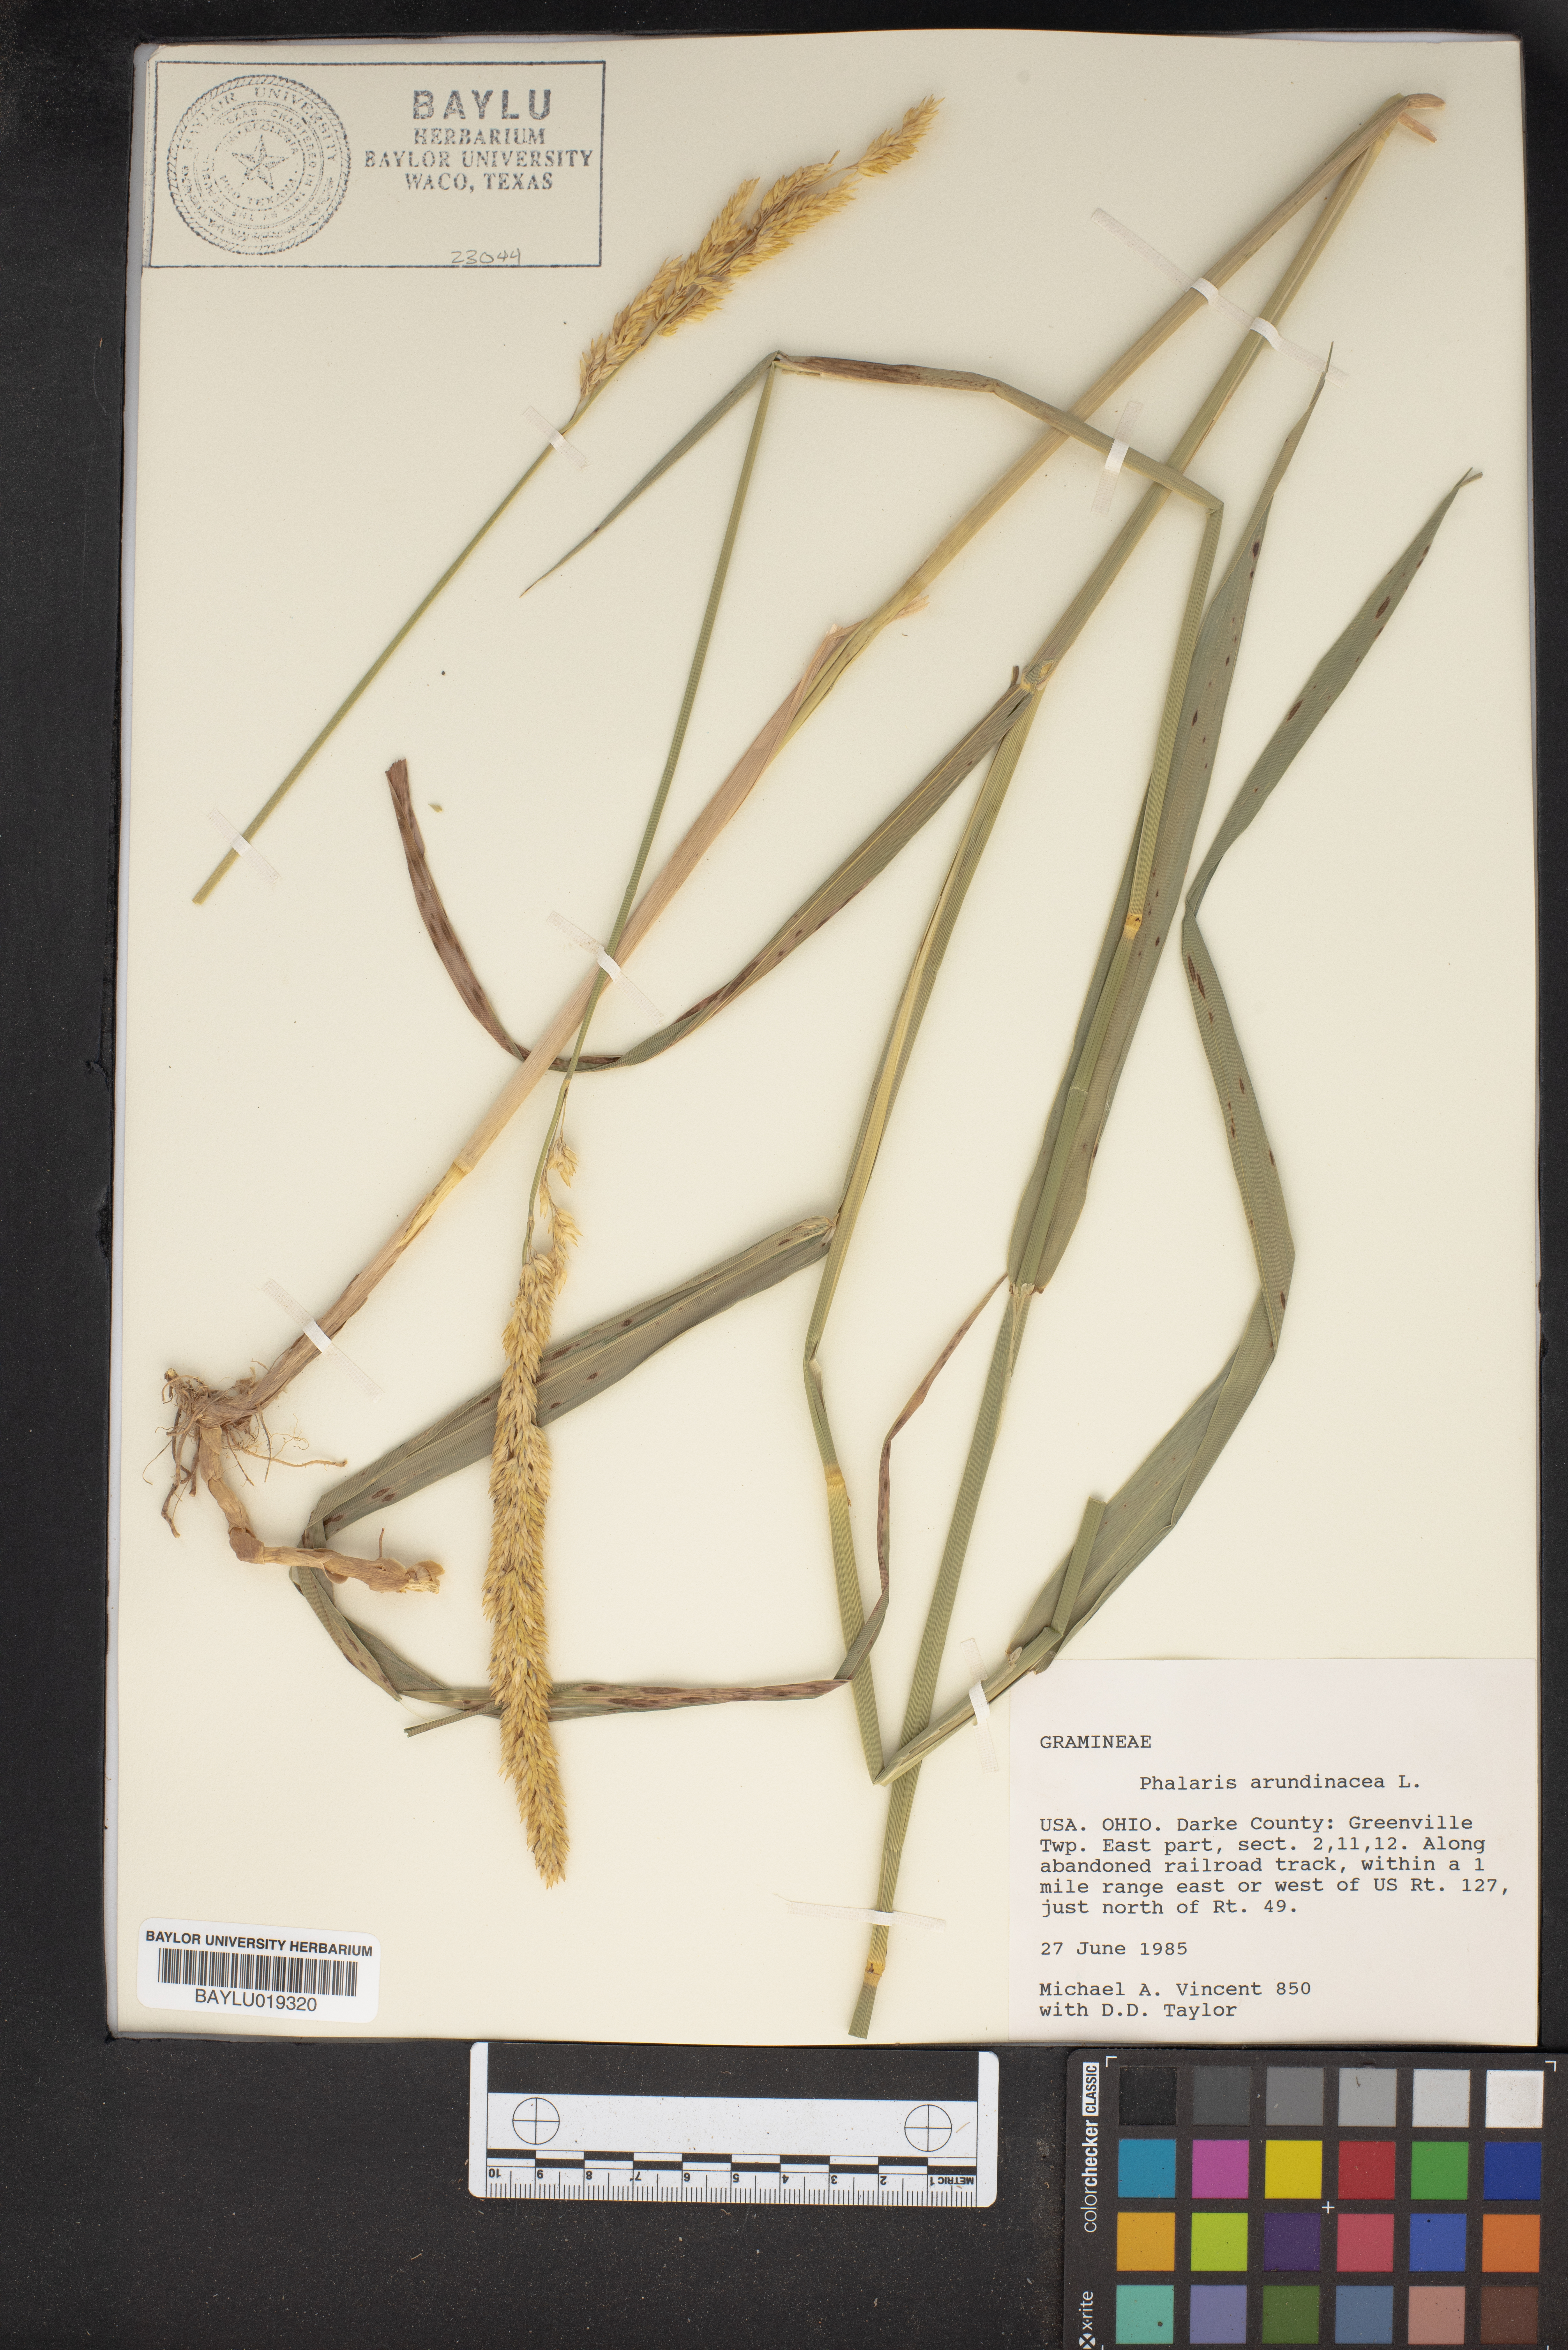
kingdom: Plantae
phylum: Tracheophyta
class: Liliopsida
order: Poales
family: Poaceae
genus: Phalaris
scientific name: Phalaris arundinacea
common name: Reed canary-grass
